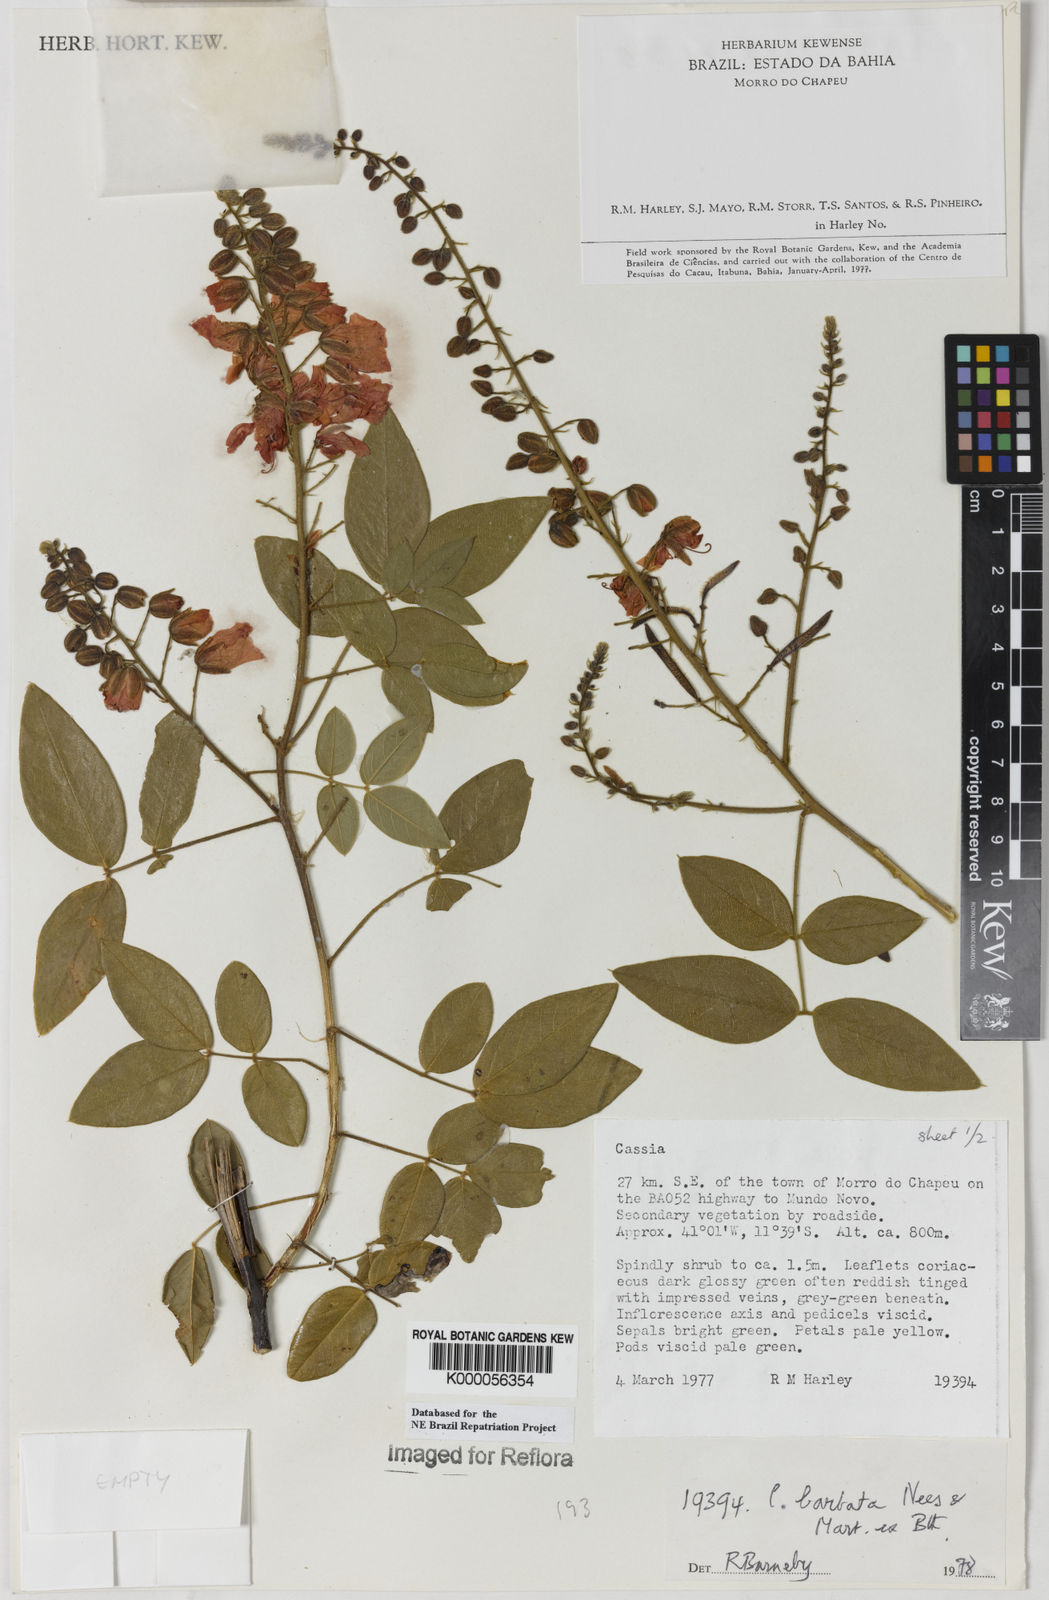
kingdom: Plantae
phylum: Tracheophyta
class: Magnoliopsida
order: Fabales
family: Fabaceae
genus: Chamaecrista
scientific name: Chamaecrista barbata
